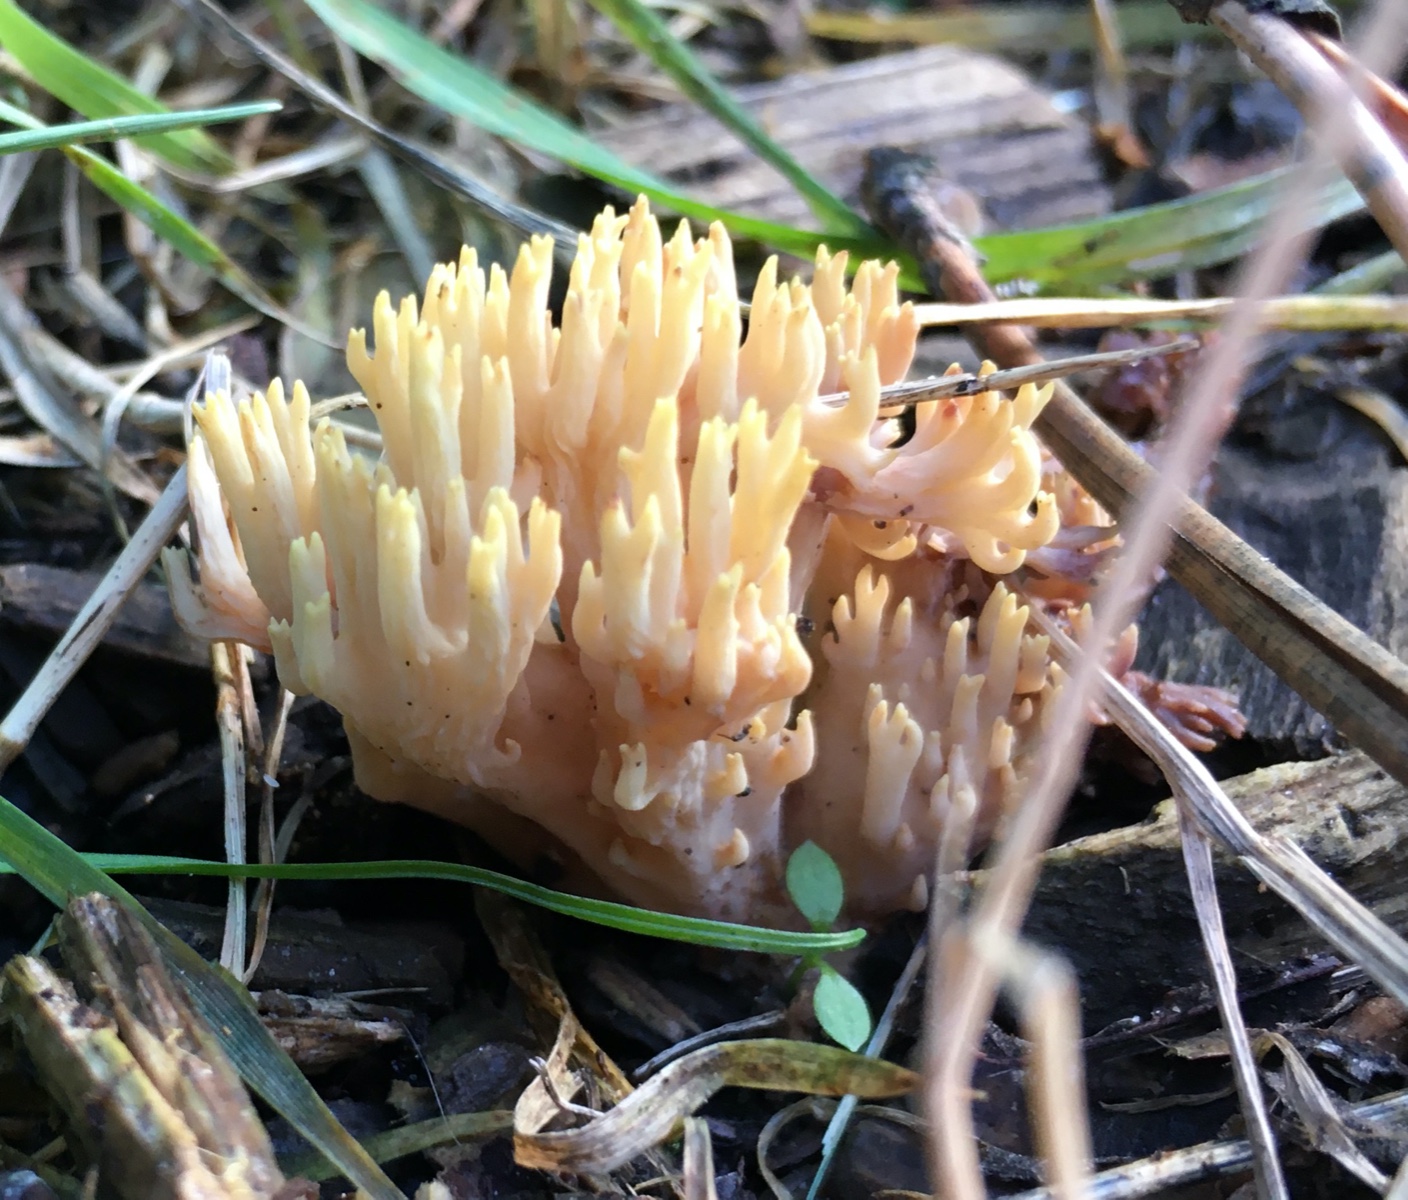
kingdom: Fungi
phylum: Basidiomycota
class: Agaricomycetes
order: Gomphales
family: Gomphaceae
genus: Ramaria
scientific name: Ramaria stricta
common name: rank koralsvamp
